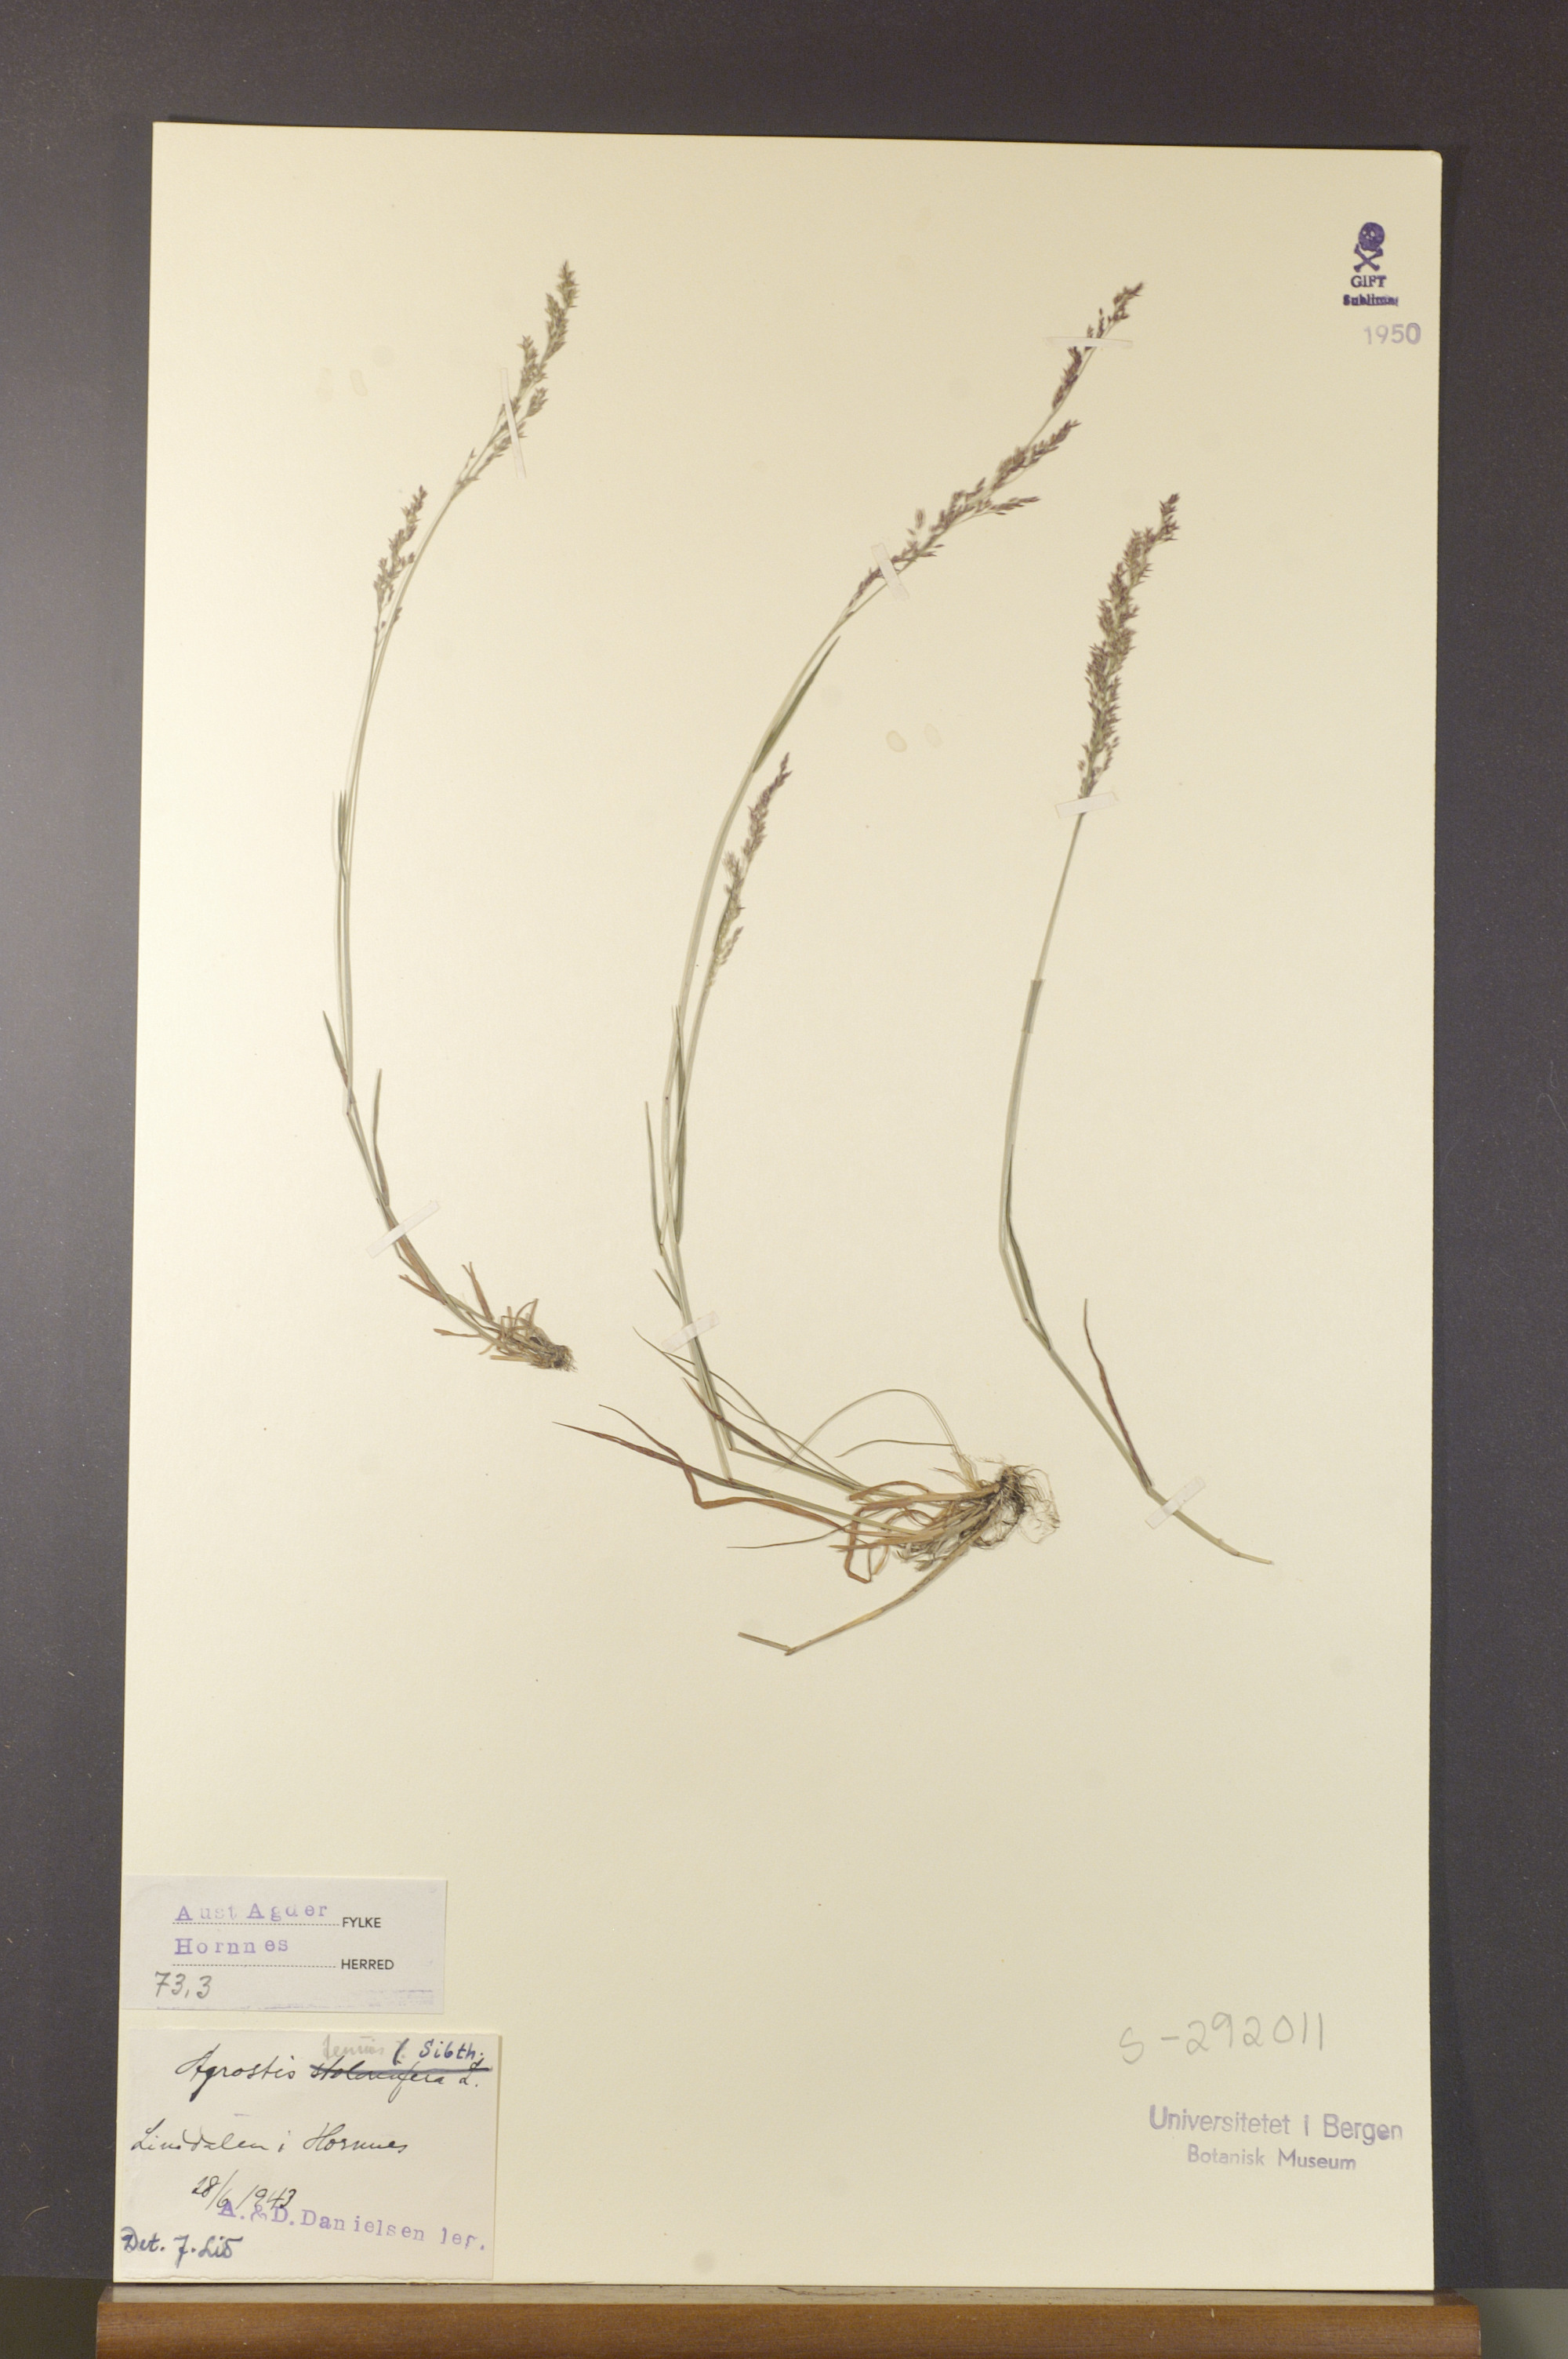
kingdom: Plantae
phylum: Tracheophyta
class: Liliopsida
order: Poales
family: Poaceae
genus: Agrostis
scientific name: Agrostis capillaris
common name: Colonial bentgrass
